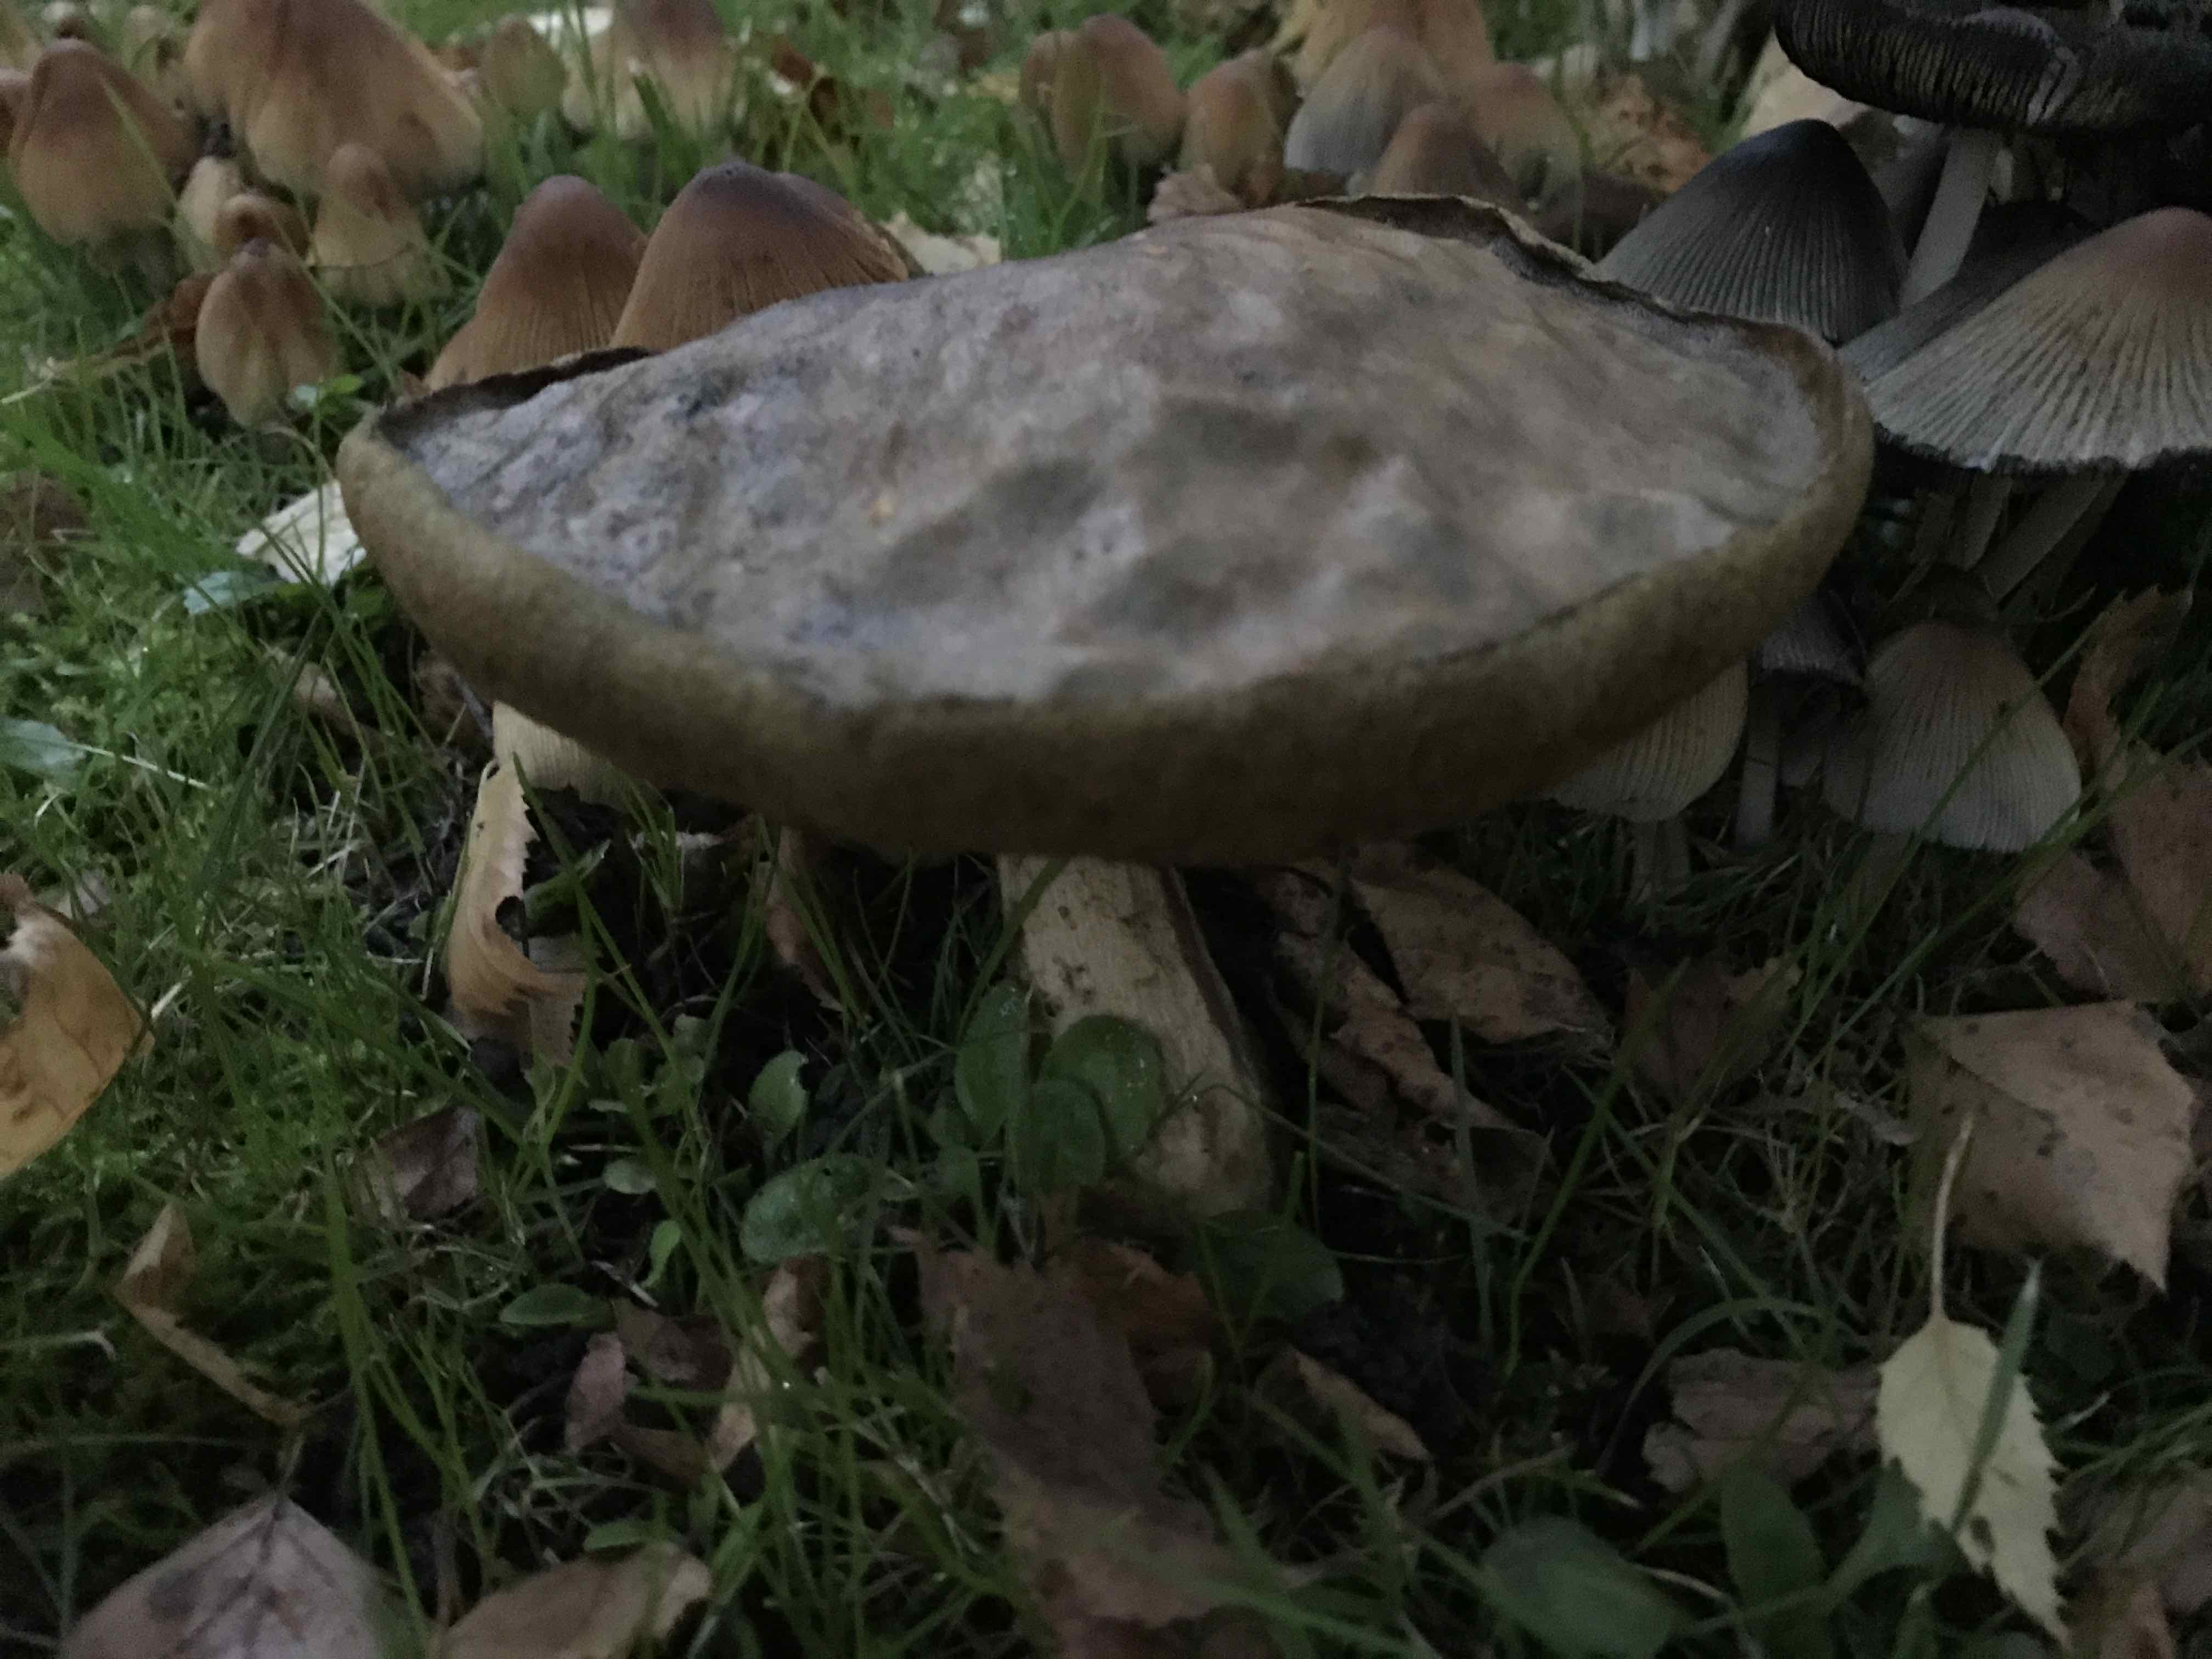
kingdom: Fungi
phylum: Basidiomycota
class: Agaricomycetes
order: Boletales
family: Boletaceae
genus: Leccinum
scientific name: Leccinum
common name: skælrørhat
